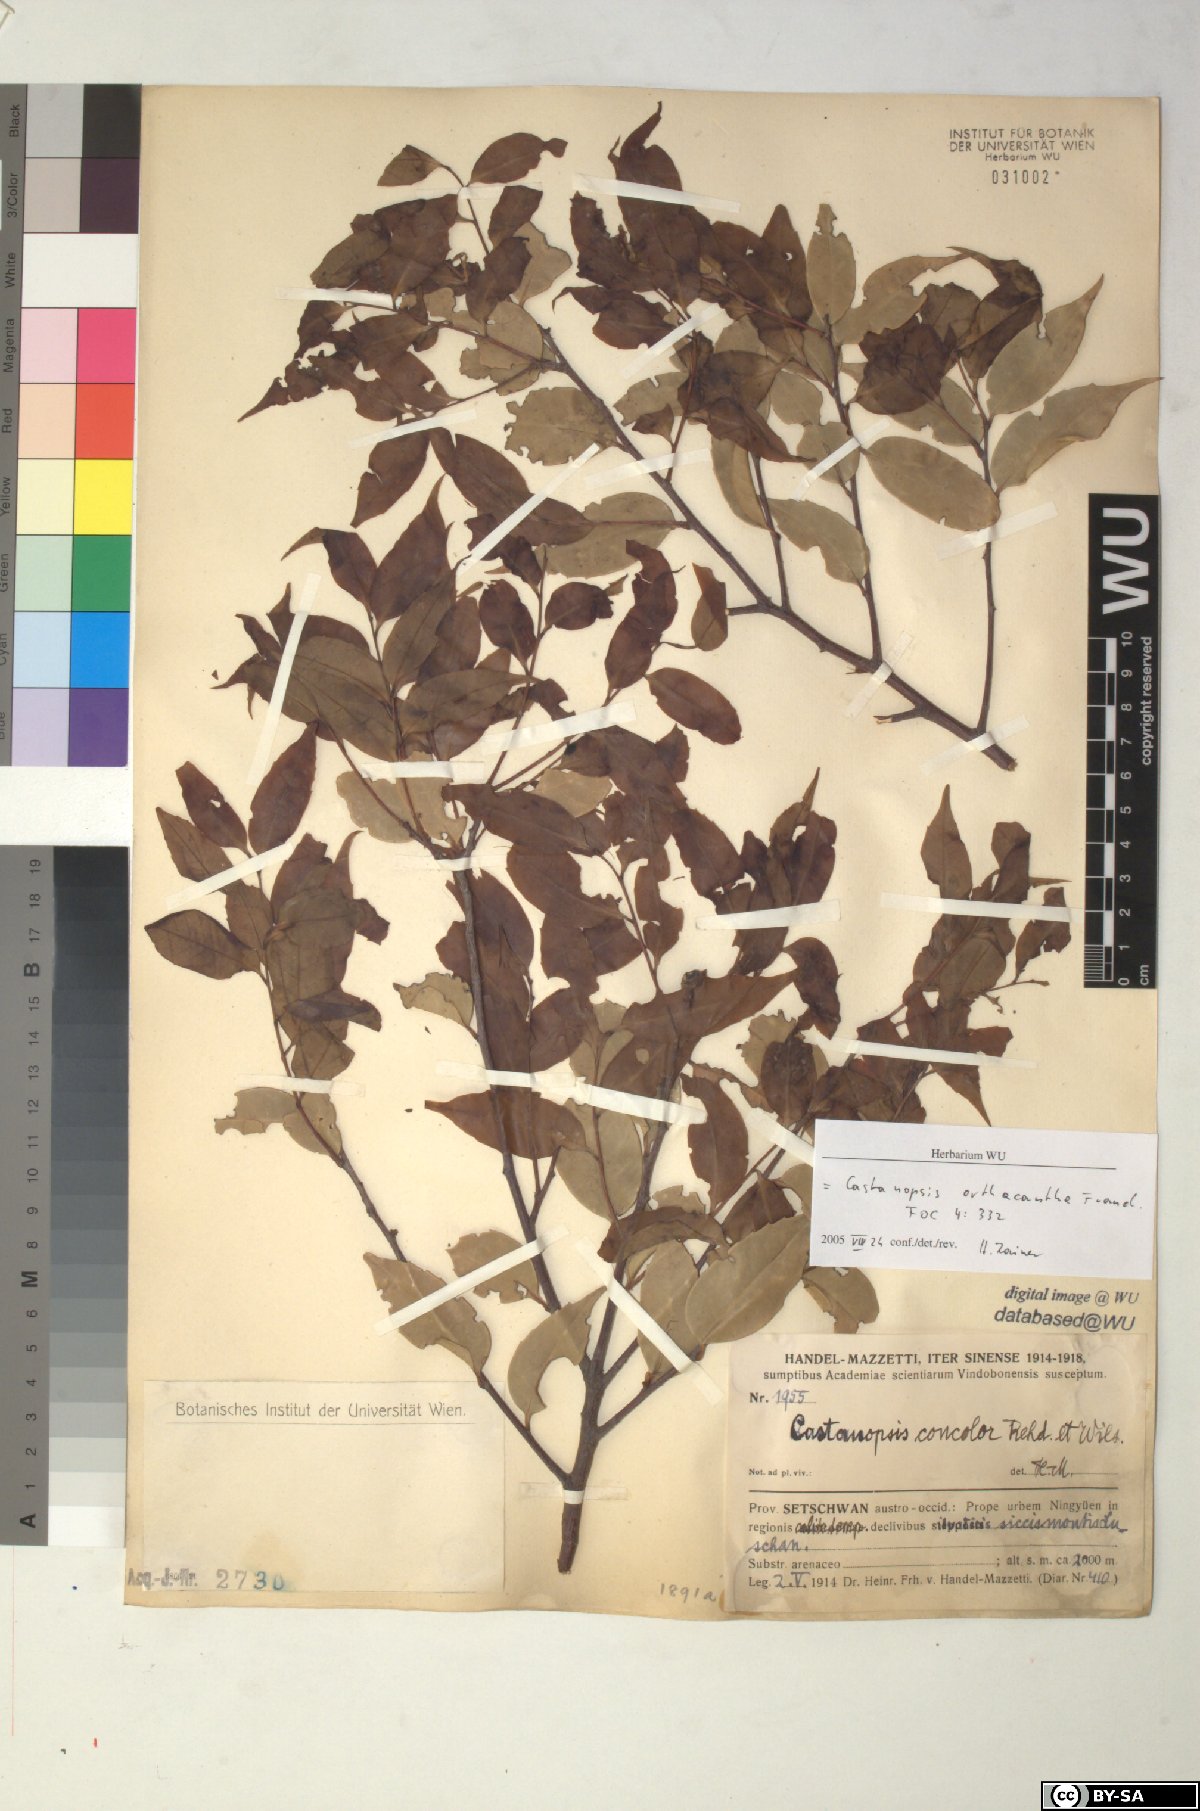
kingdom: Plantae
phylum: Tracheophyta
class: Magnoliopsida
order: Fagales
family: Fagaceae
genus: Castanopsis
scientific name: Castanopsis orthacantha
